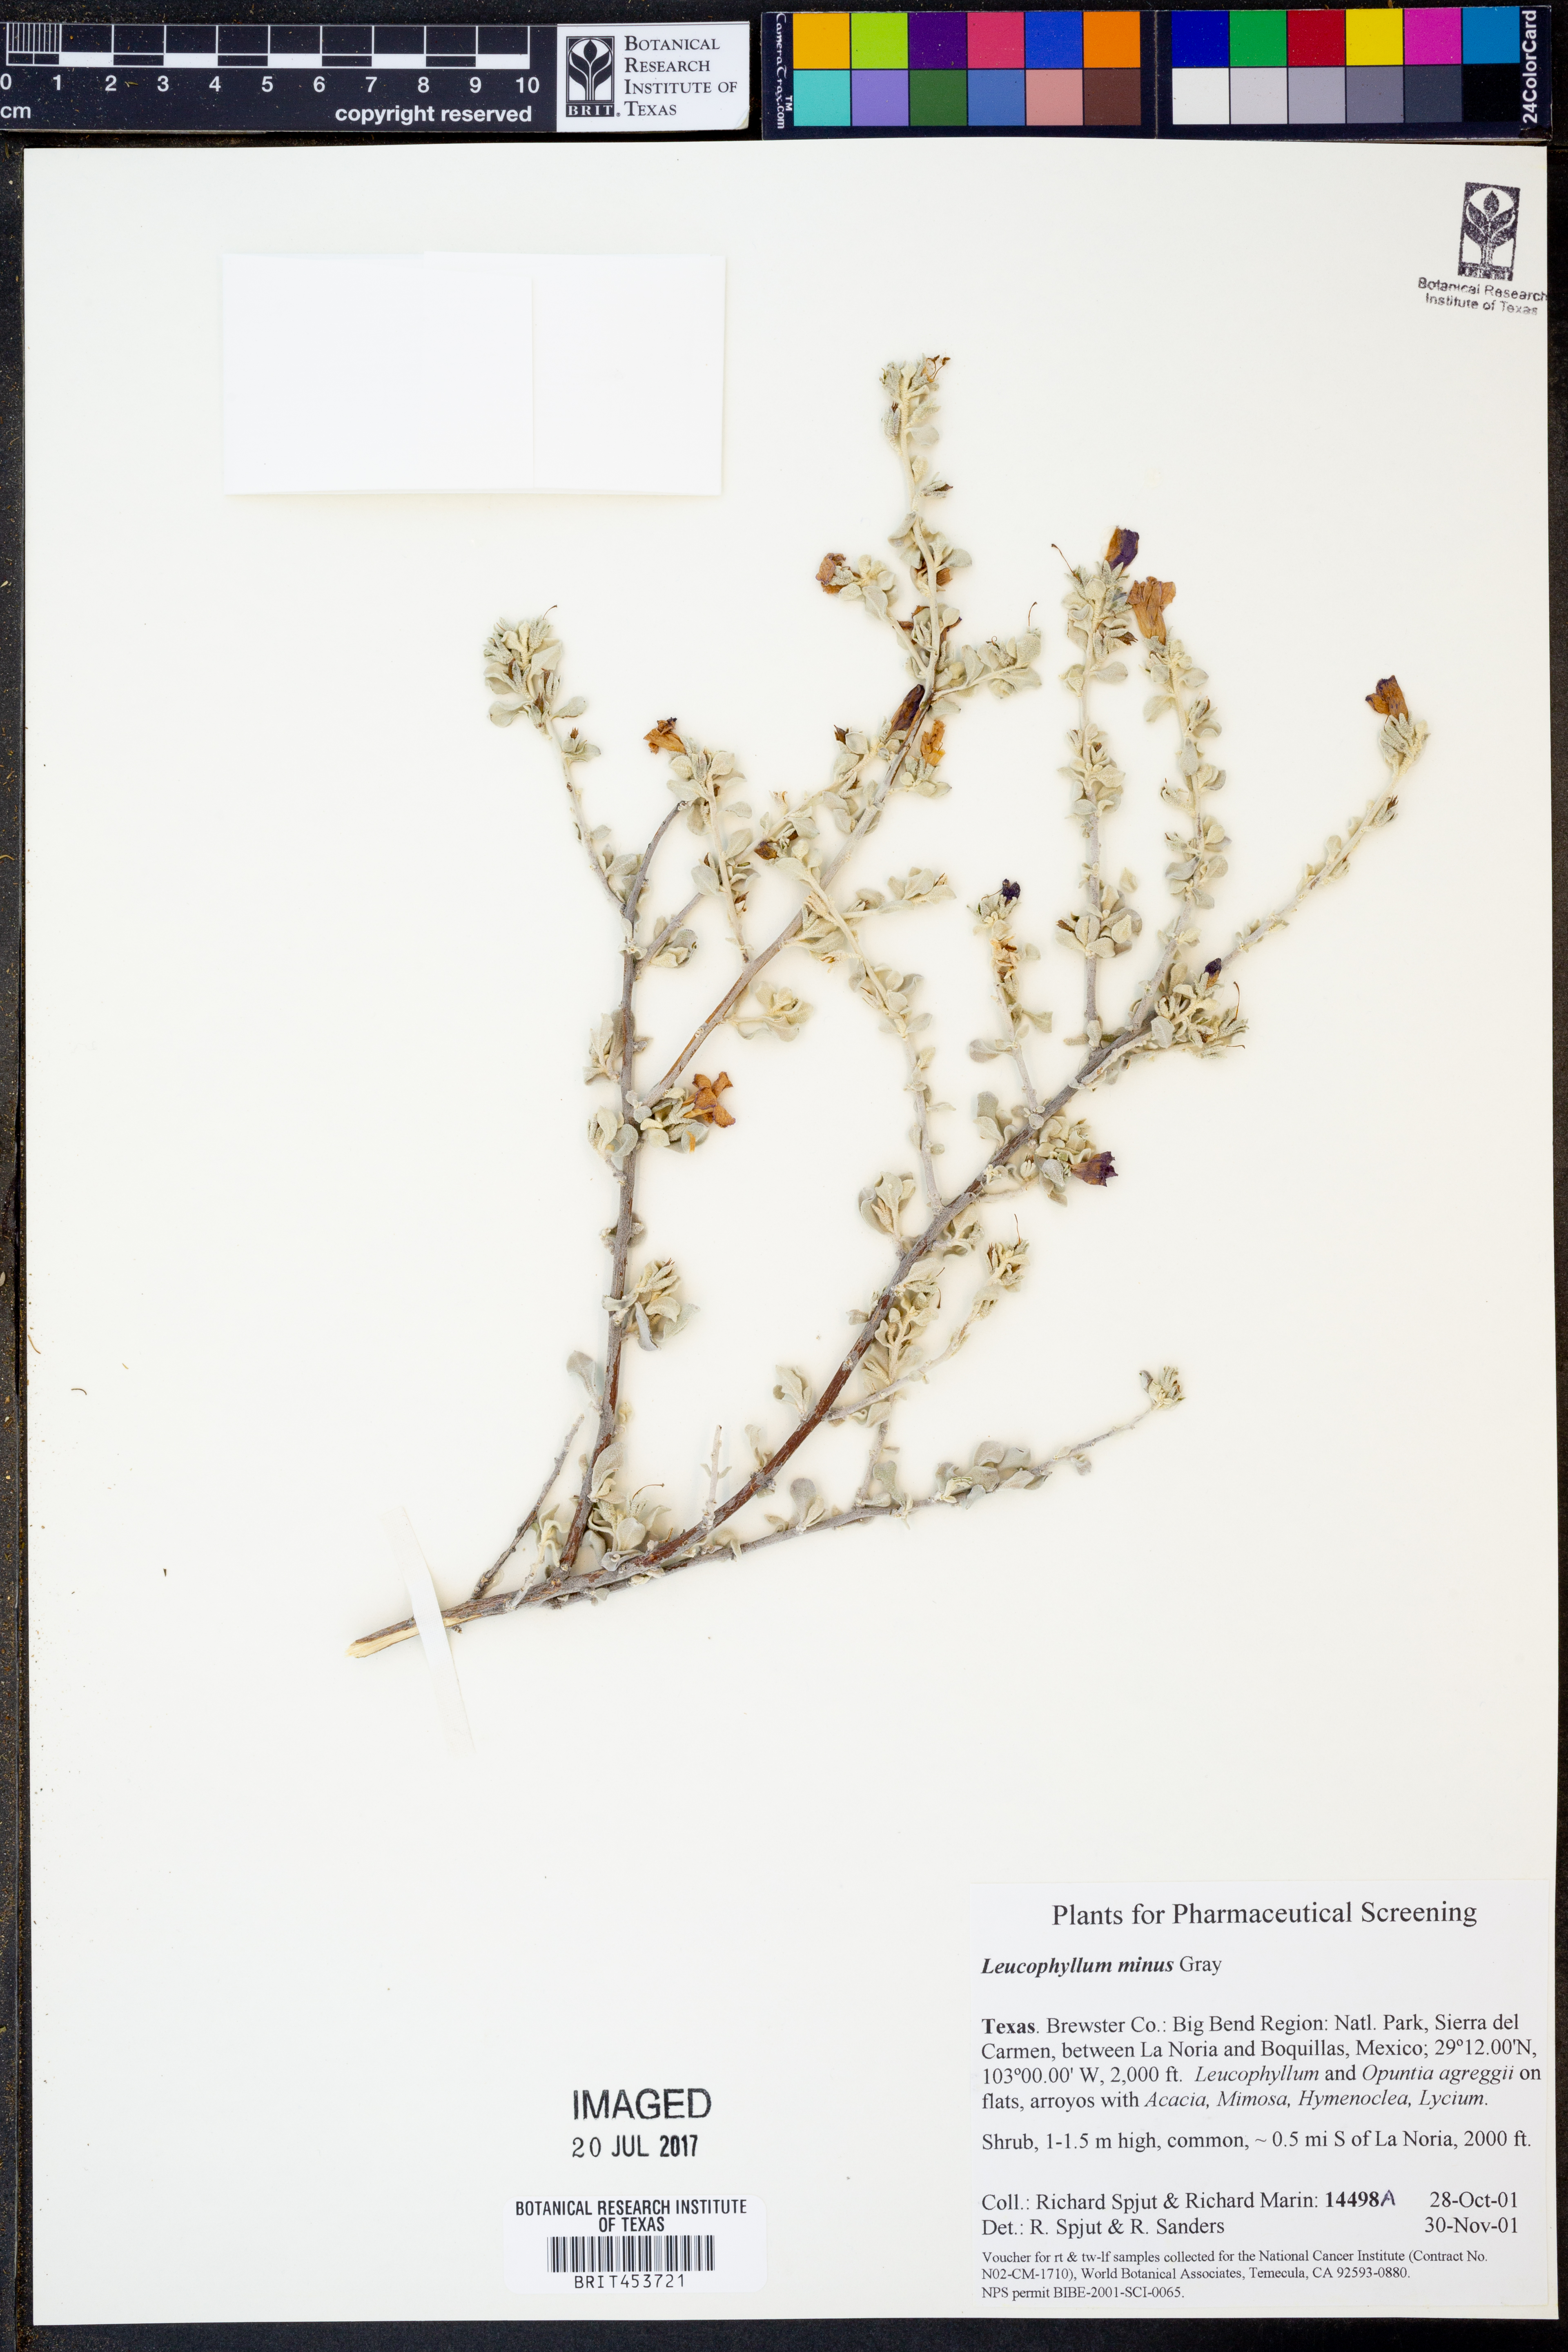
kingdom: Plantae
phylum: Tracheophyta
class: Magnoliopsida
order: Lamiales
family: Scrophulariaceae
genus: Leucophyllum
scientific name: Leucophyllum minus
